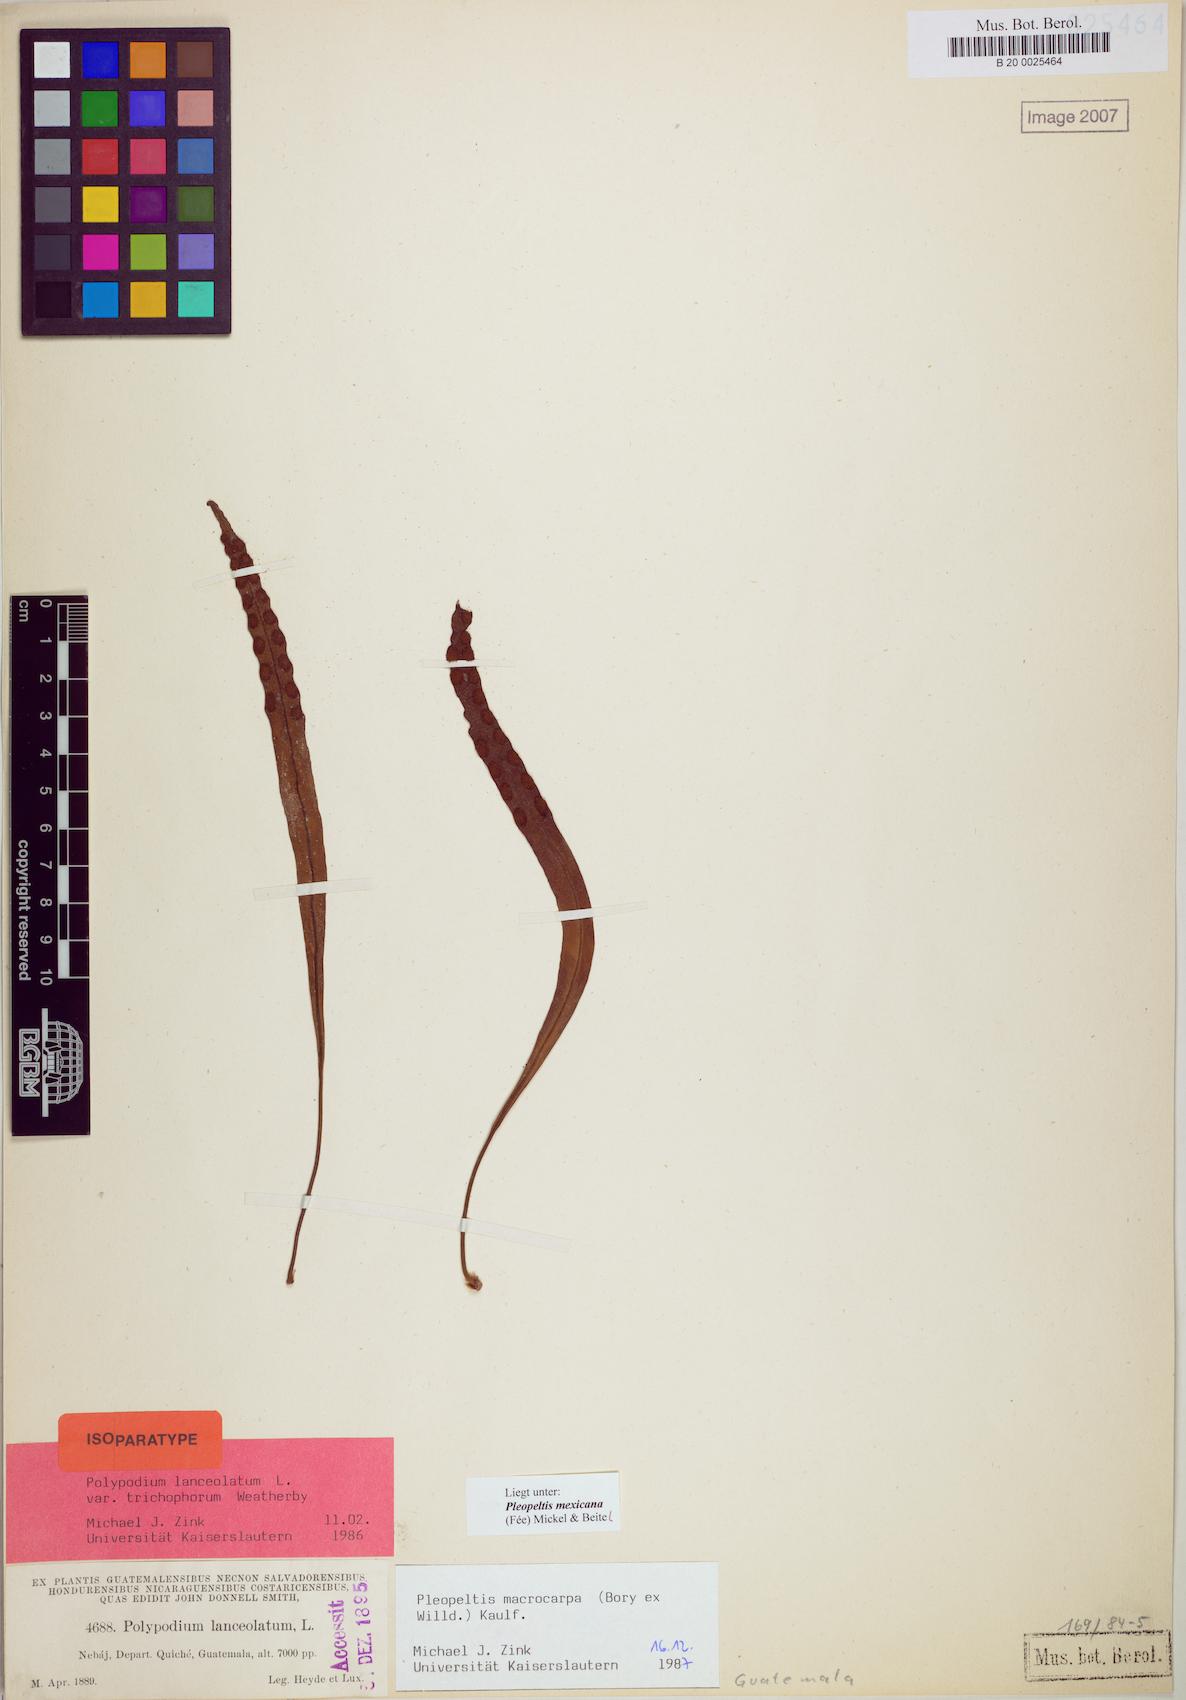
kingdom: Plantae
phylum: Tracheophyta
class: Polypodiopsida
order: Polypodiales
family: Polypodiaceae
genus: Pleopeltis
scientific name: Pleopeltis mexicana
